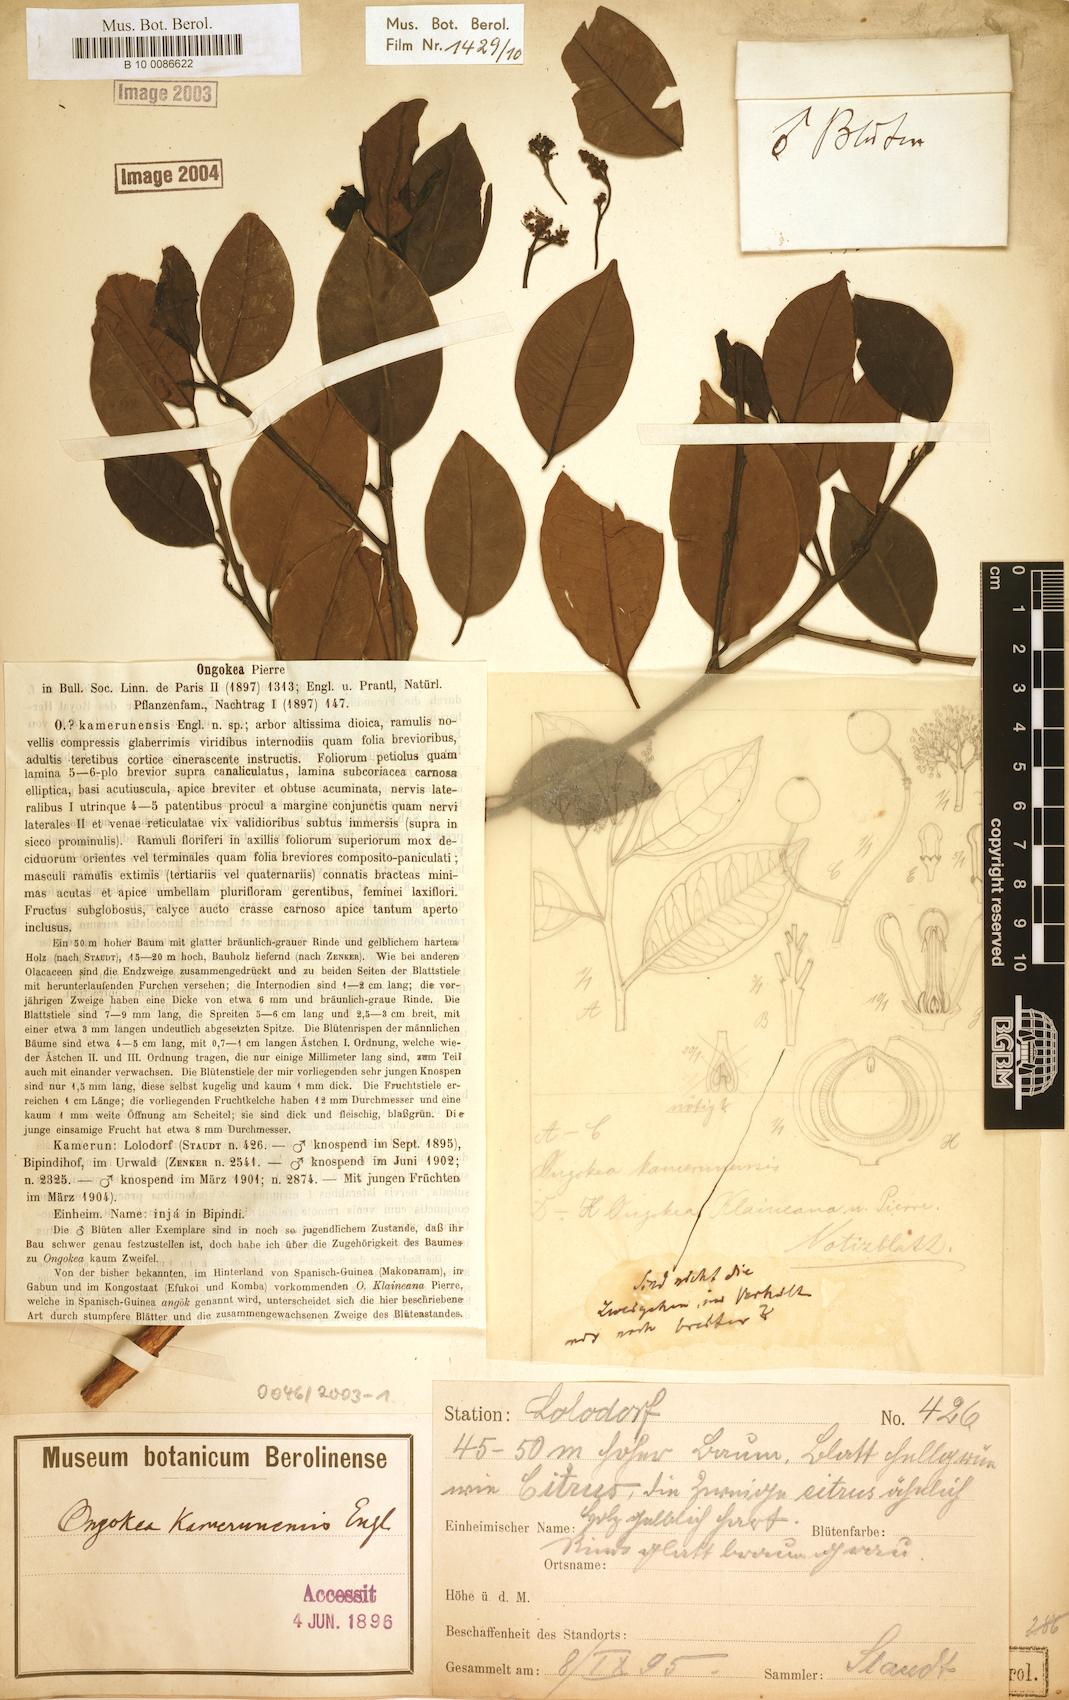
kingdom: Plantae
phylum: Tracheophyta
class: Magnoliopsida
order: Santalales
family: Aptandraceae
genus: Ongokea
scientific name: Ongokea gore
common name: Boleko-nut
